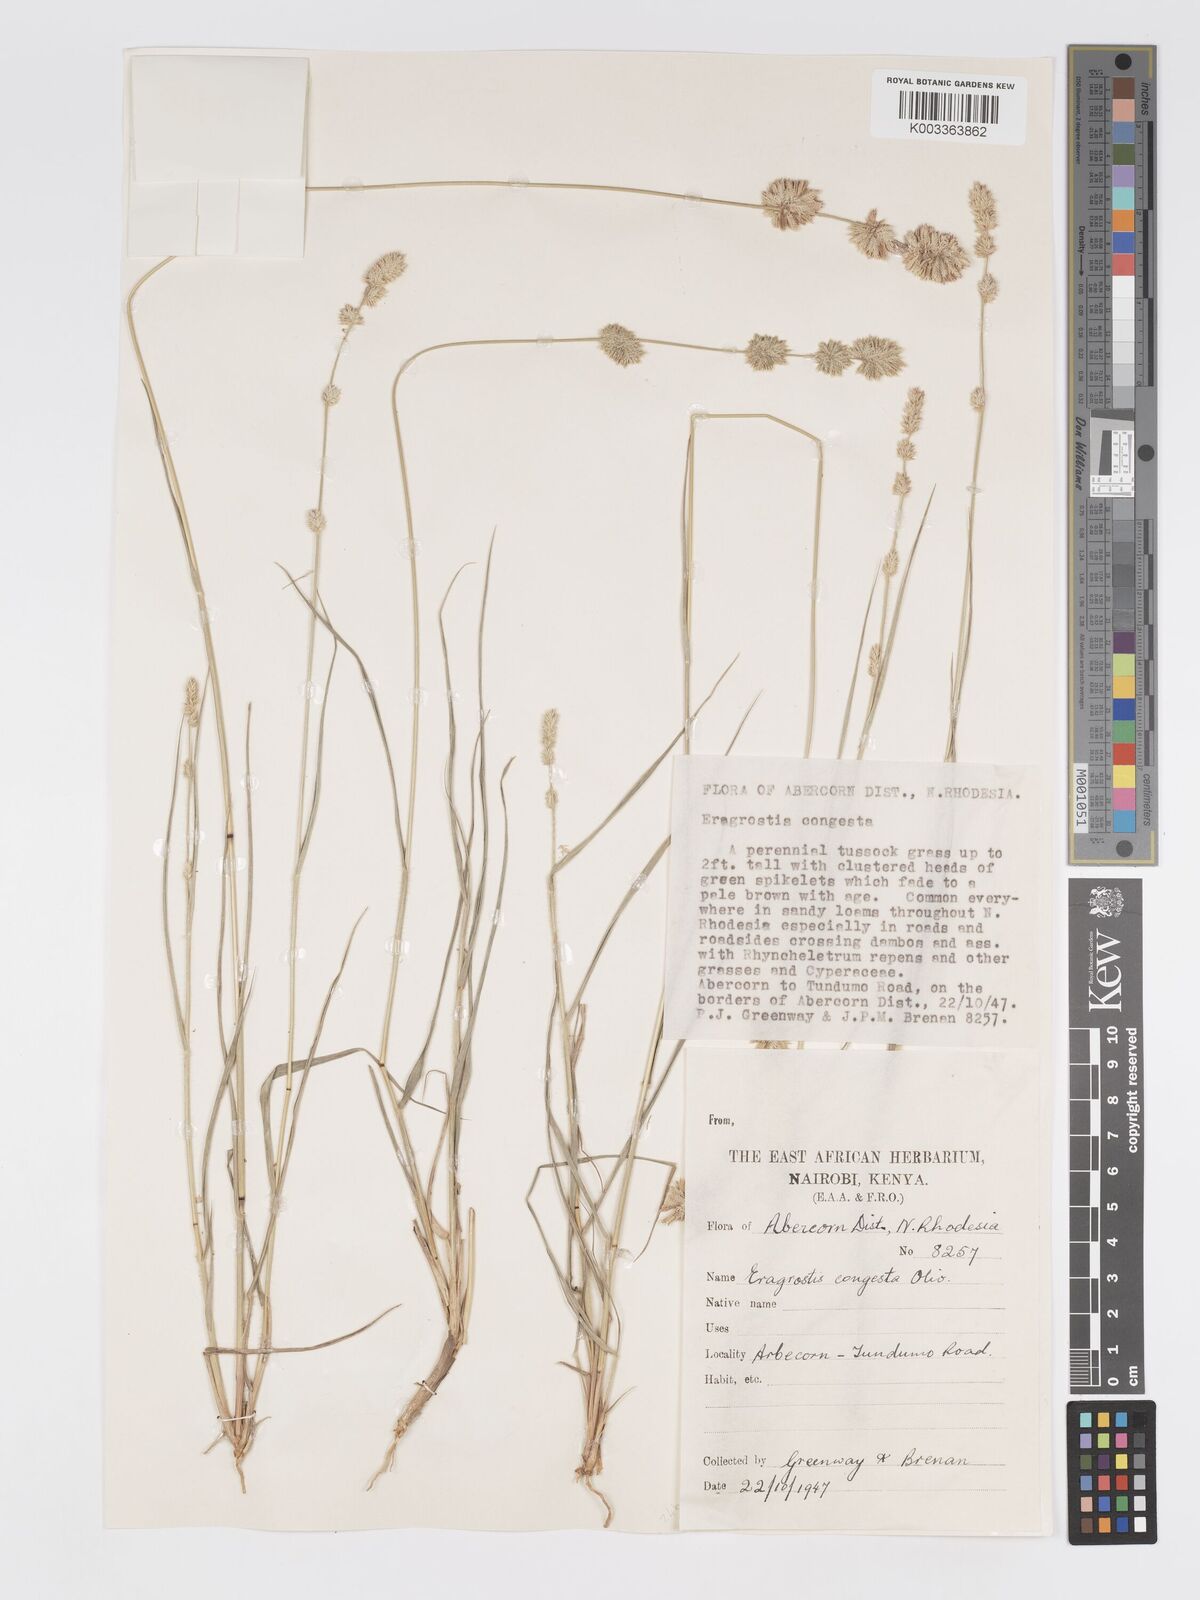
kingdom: Plantae
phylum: Tracheophyta
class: Liliopsida
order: Poales
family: Poaceae
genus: Eragrostis
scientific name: Eragrostis congesta
